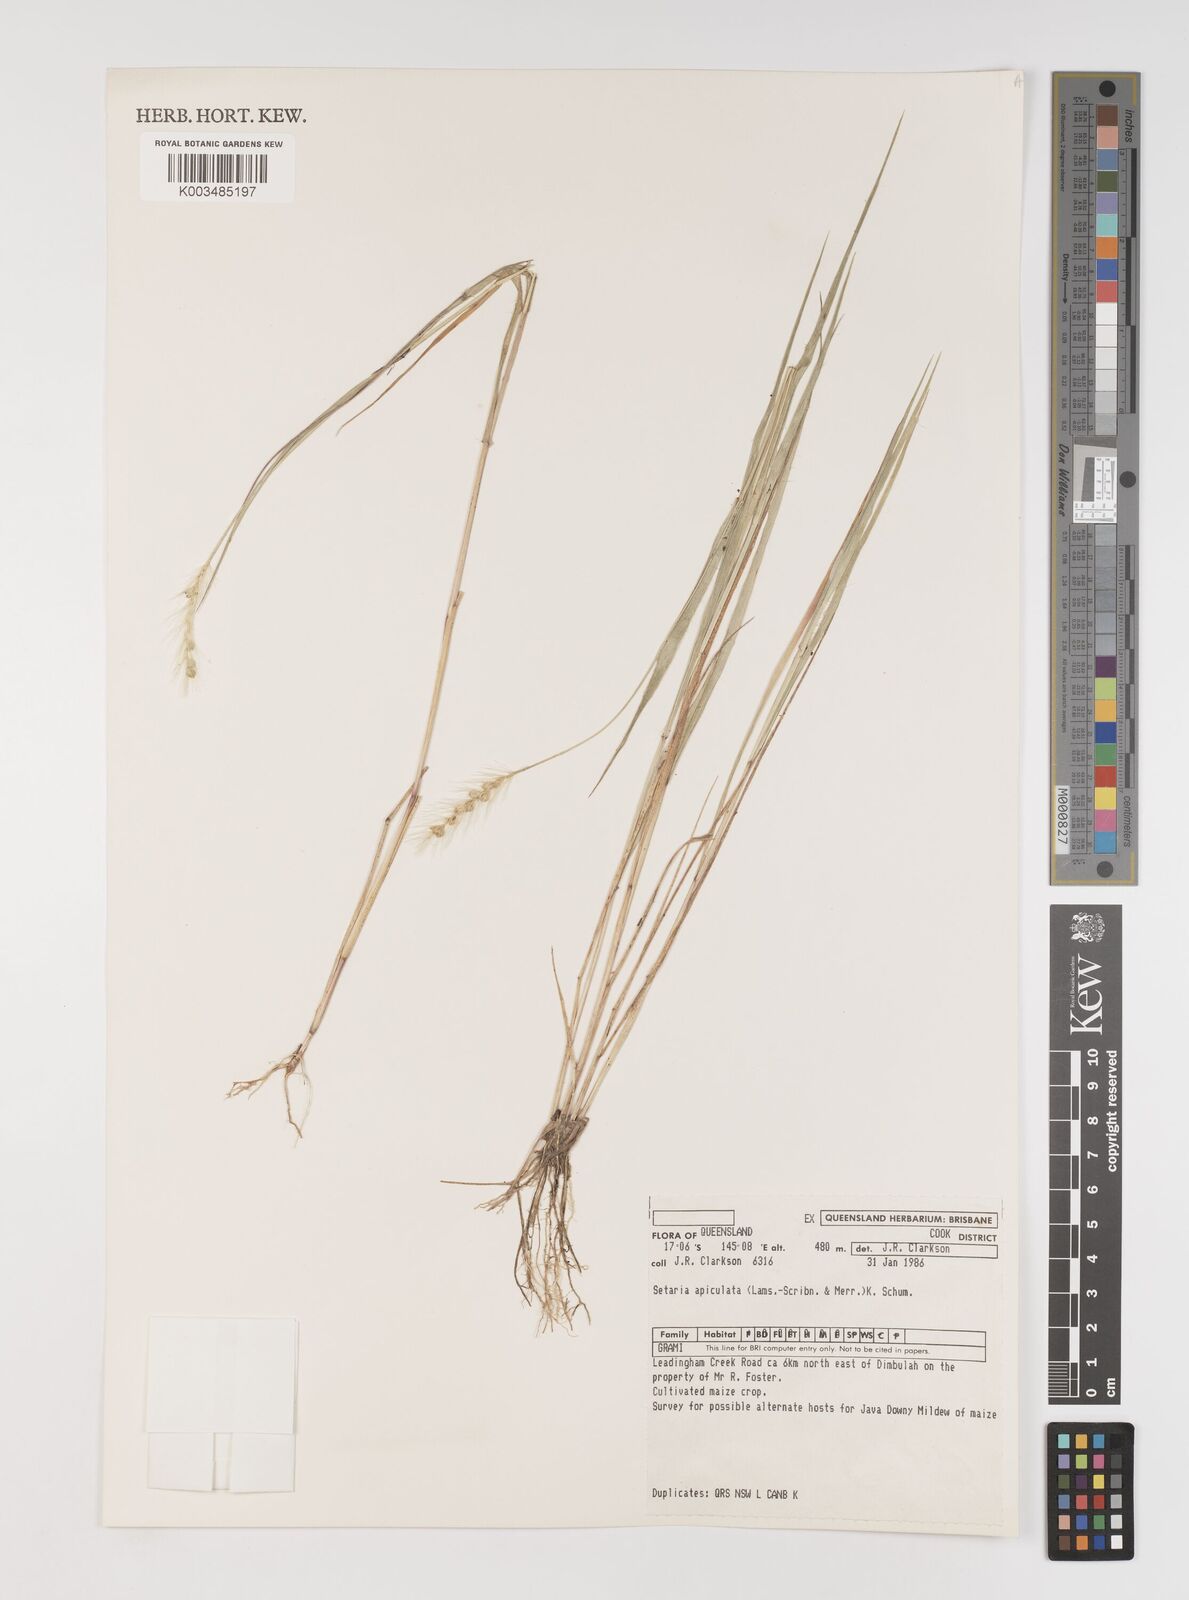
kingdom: Plantae
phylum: Tracheophyta
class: Liliopsida
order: Poales
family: Poaceae
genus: Setaria
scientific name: Setaria apiculata
